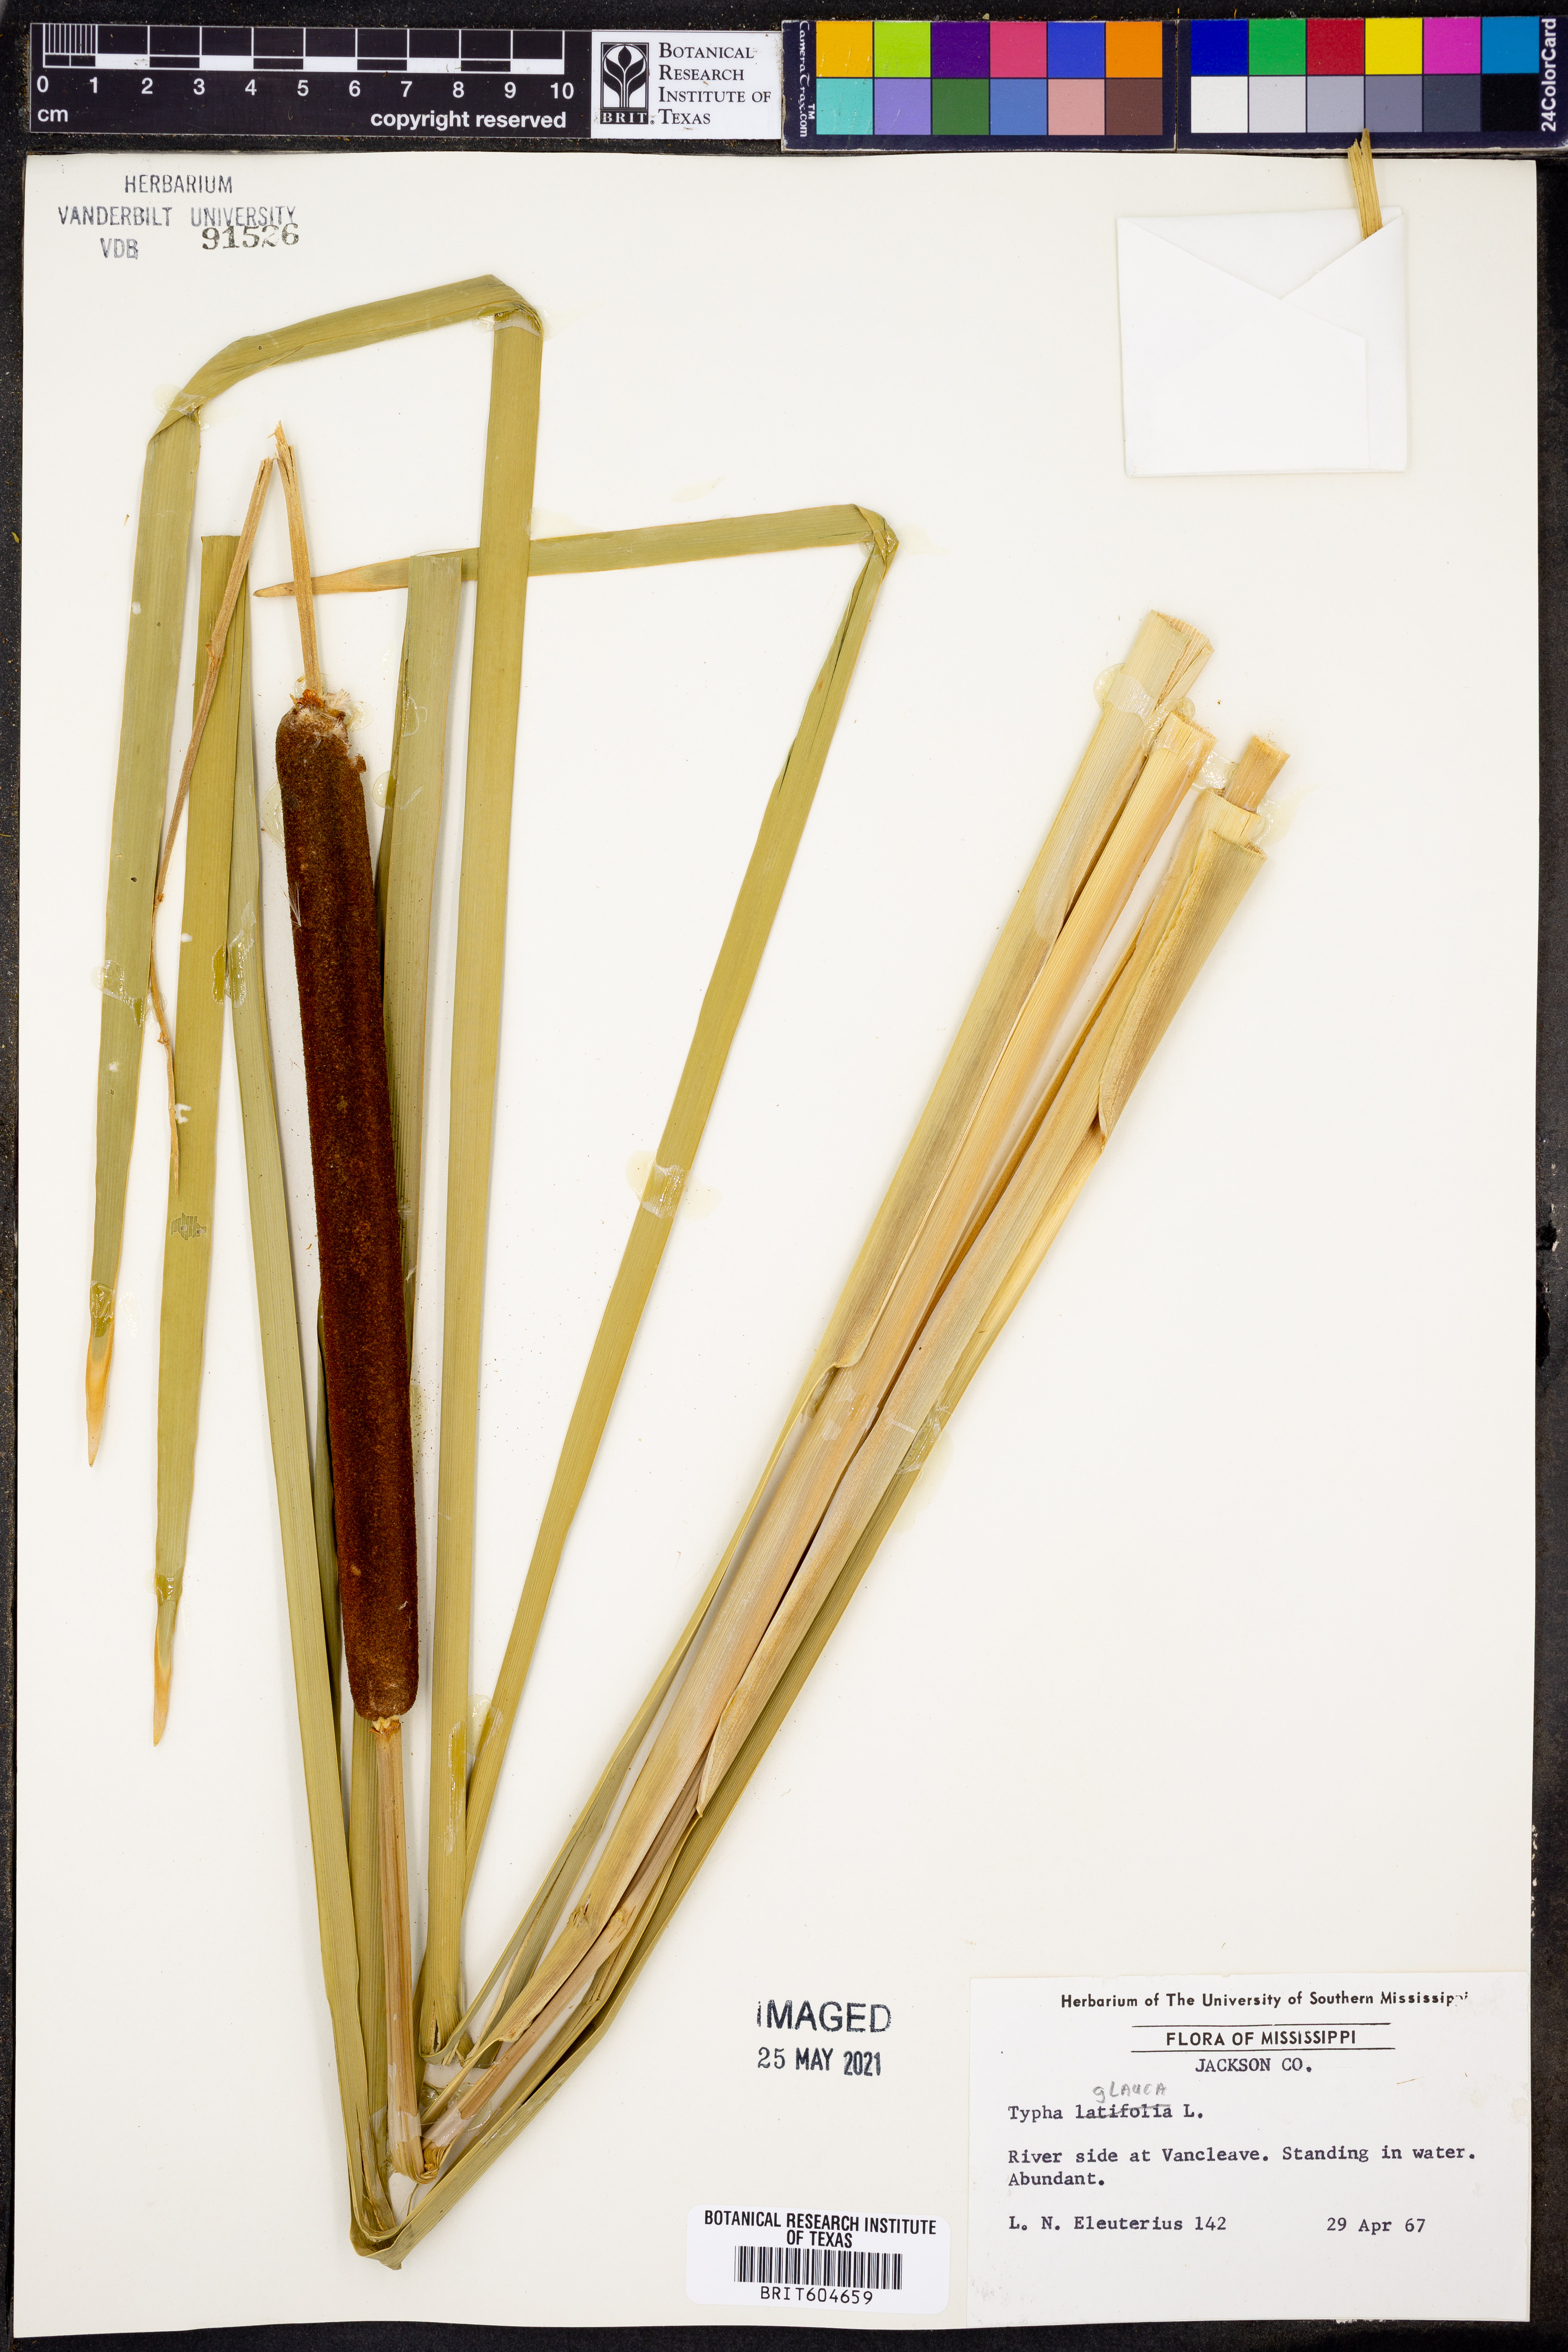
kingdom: Plantae
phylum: Tracheophyta
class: Liliopsida
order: Poales
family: Typhaceae
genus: Typha
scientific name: Typha glauca
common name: Blue cattail
